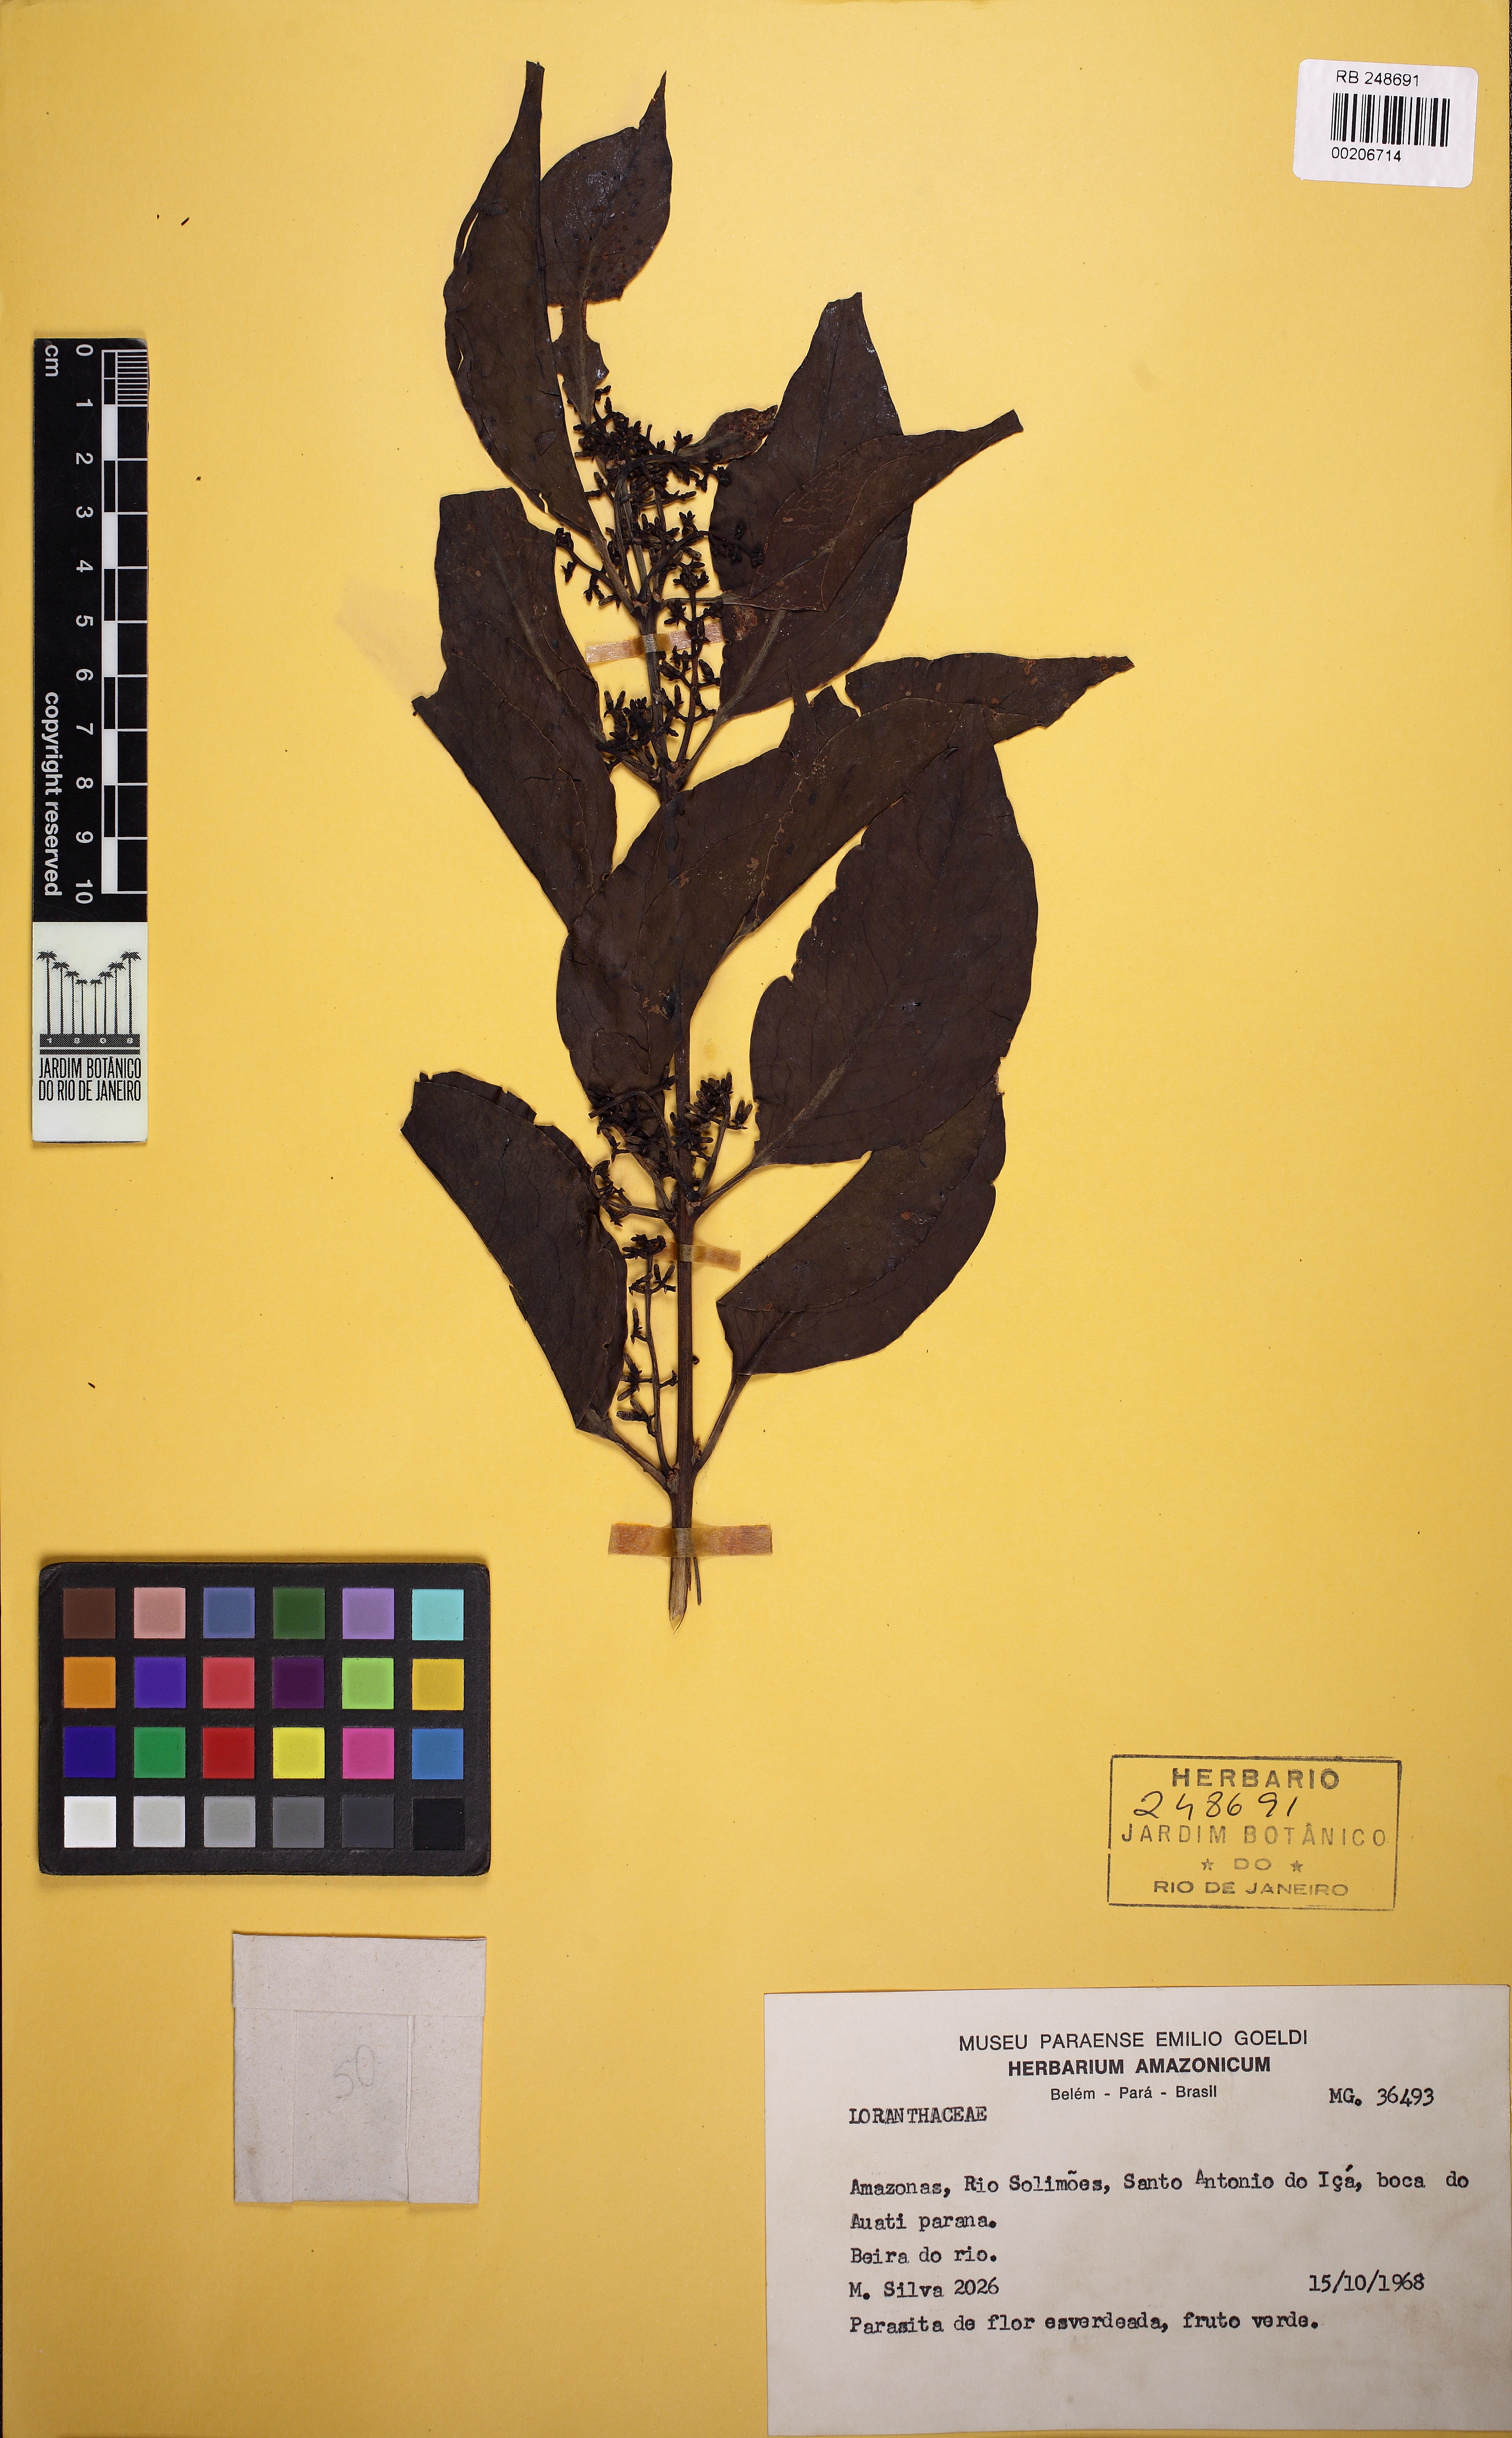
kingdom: Plantae
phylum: Tracheophyta
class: Magnoliopsida
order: Santalales
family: Loranthaceae
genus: Passovia
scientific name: Passovia pedunculata
